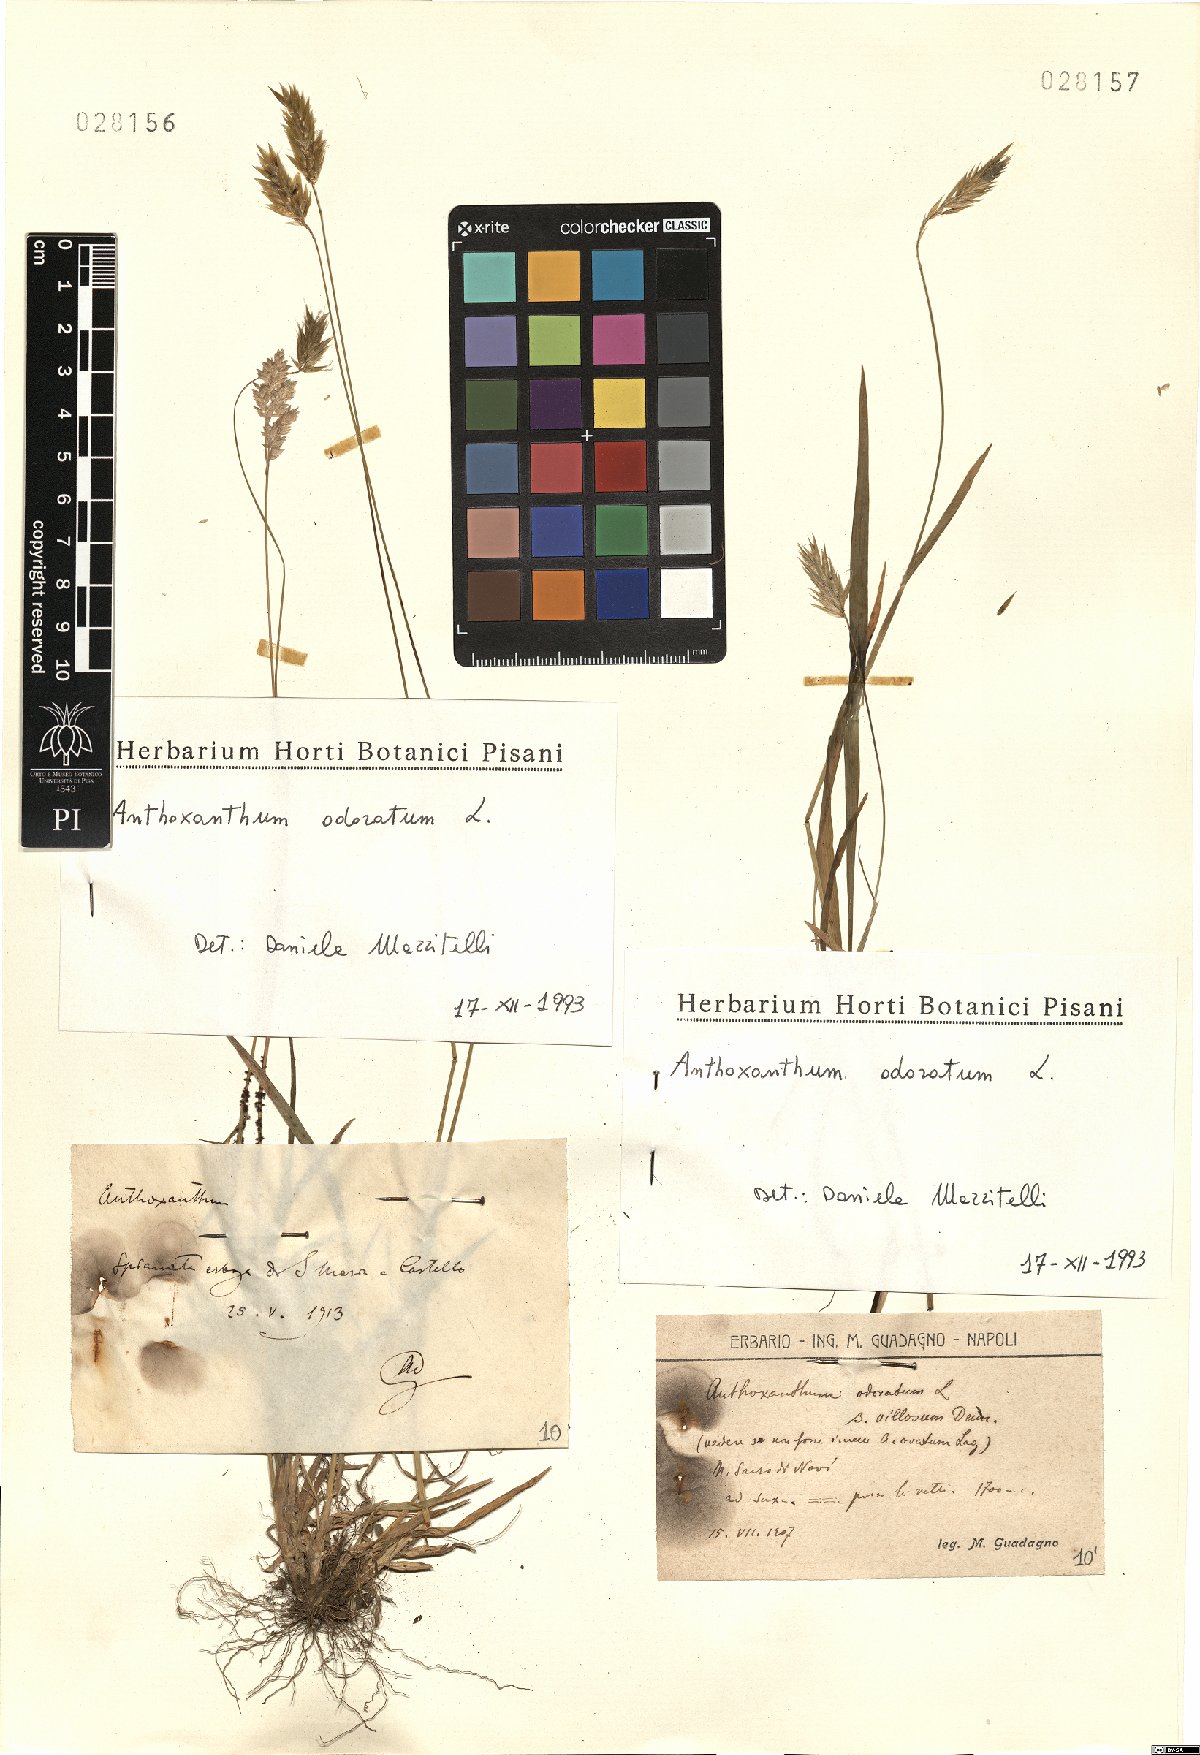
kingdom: Plantae
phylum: Tracheophyta
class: Liliopsida
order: Poales
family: Poaceae
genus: Anthoxanthum
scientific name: Anthoxanthum odoratum
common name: Sweet vernalgrass
